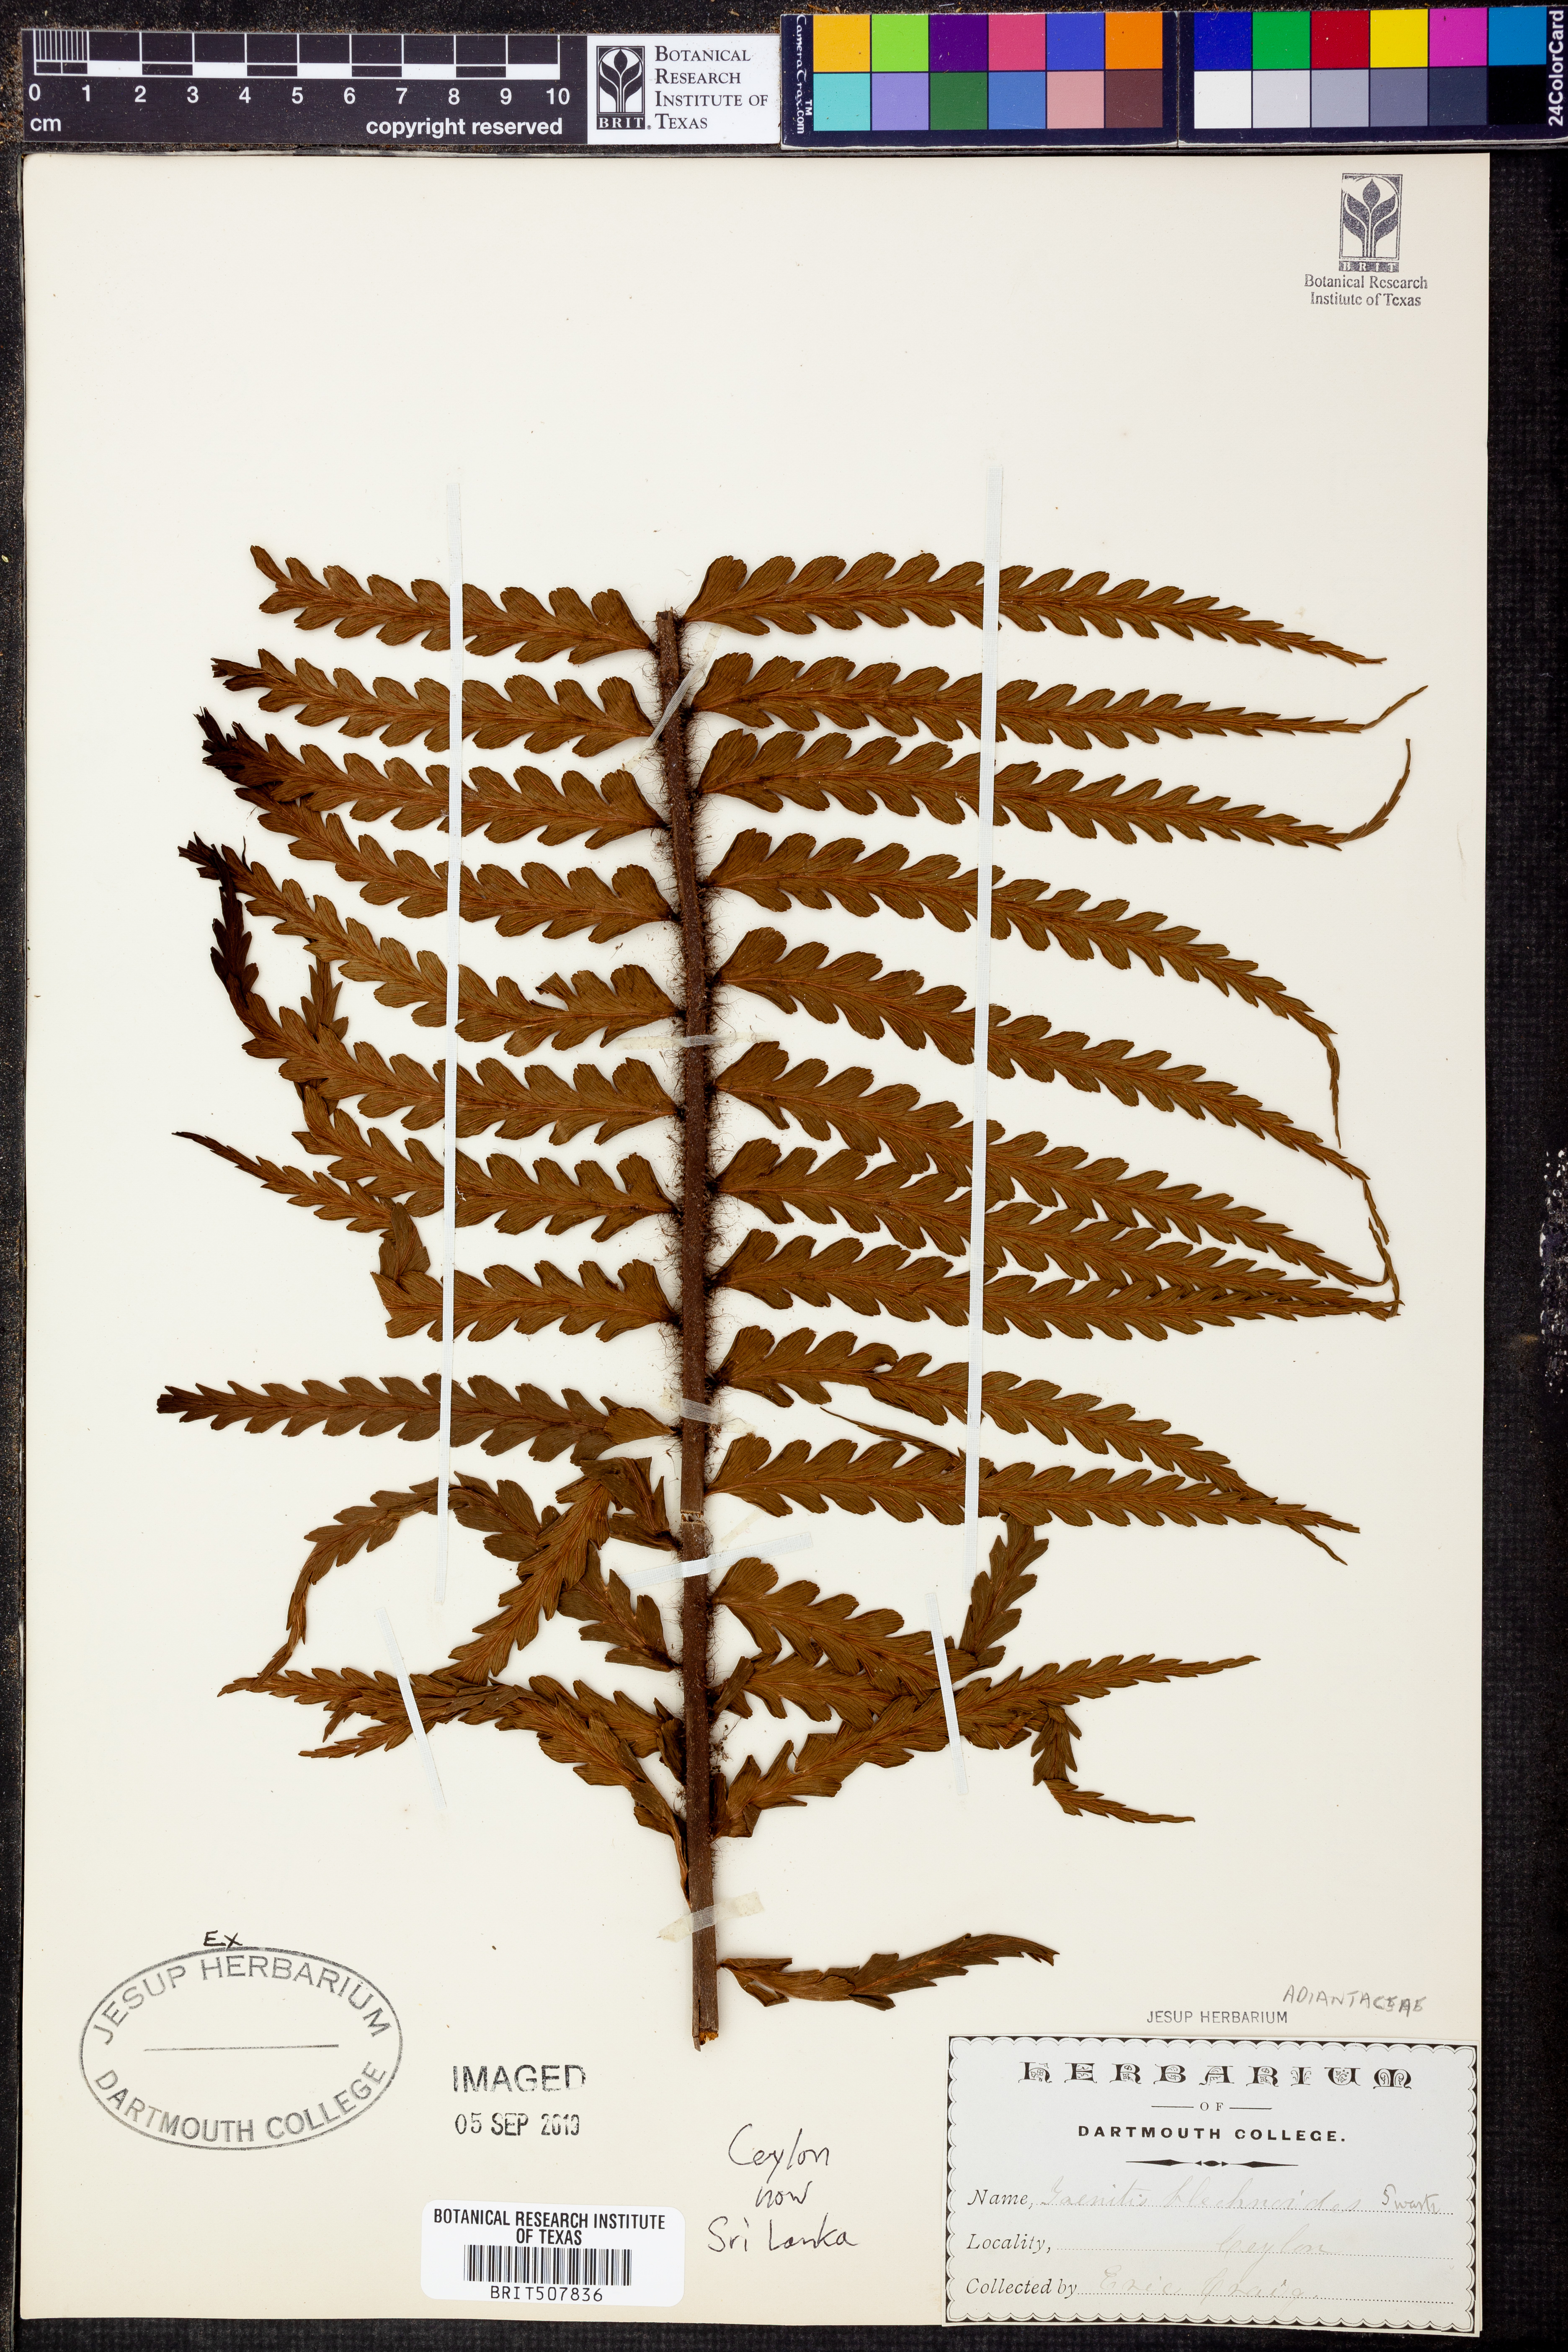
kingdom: Plantae
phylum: Tracheophyta
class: Polypodiopsida
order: Polypodiales
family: Pteridaceae
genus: Taenitis
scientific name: Taenitis blechnoides
